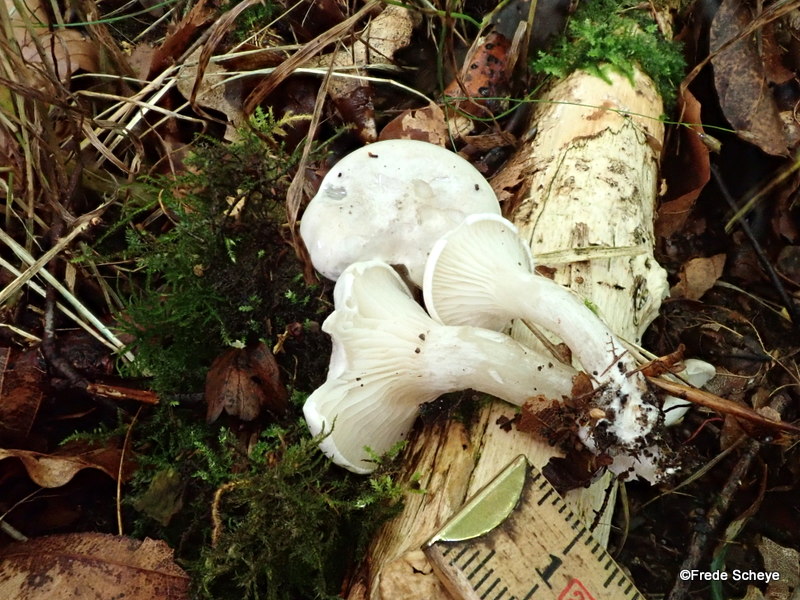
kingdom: Fungi
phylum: Basidiomycota
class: Agaricomycetes
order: Agaricales
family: Entolomataceae
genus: Clitopilus
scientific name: Clitopilus prunulus
